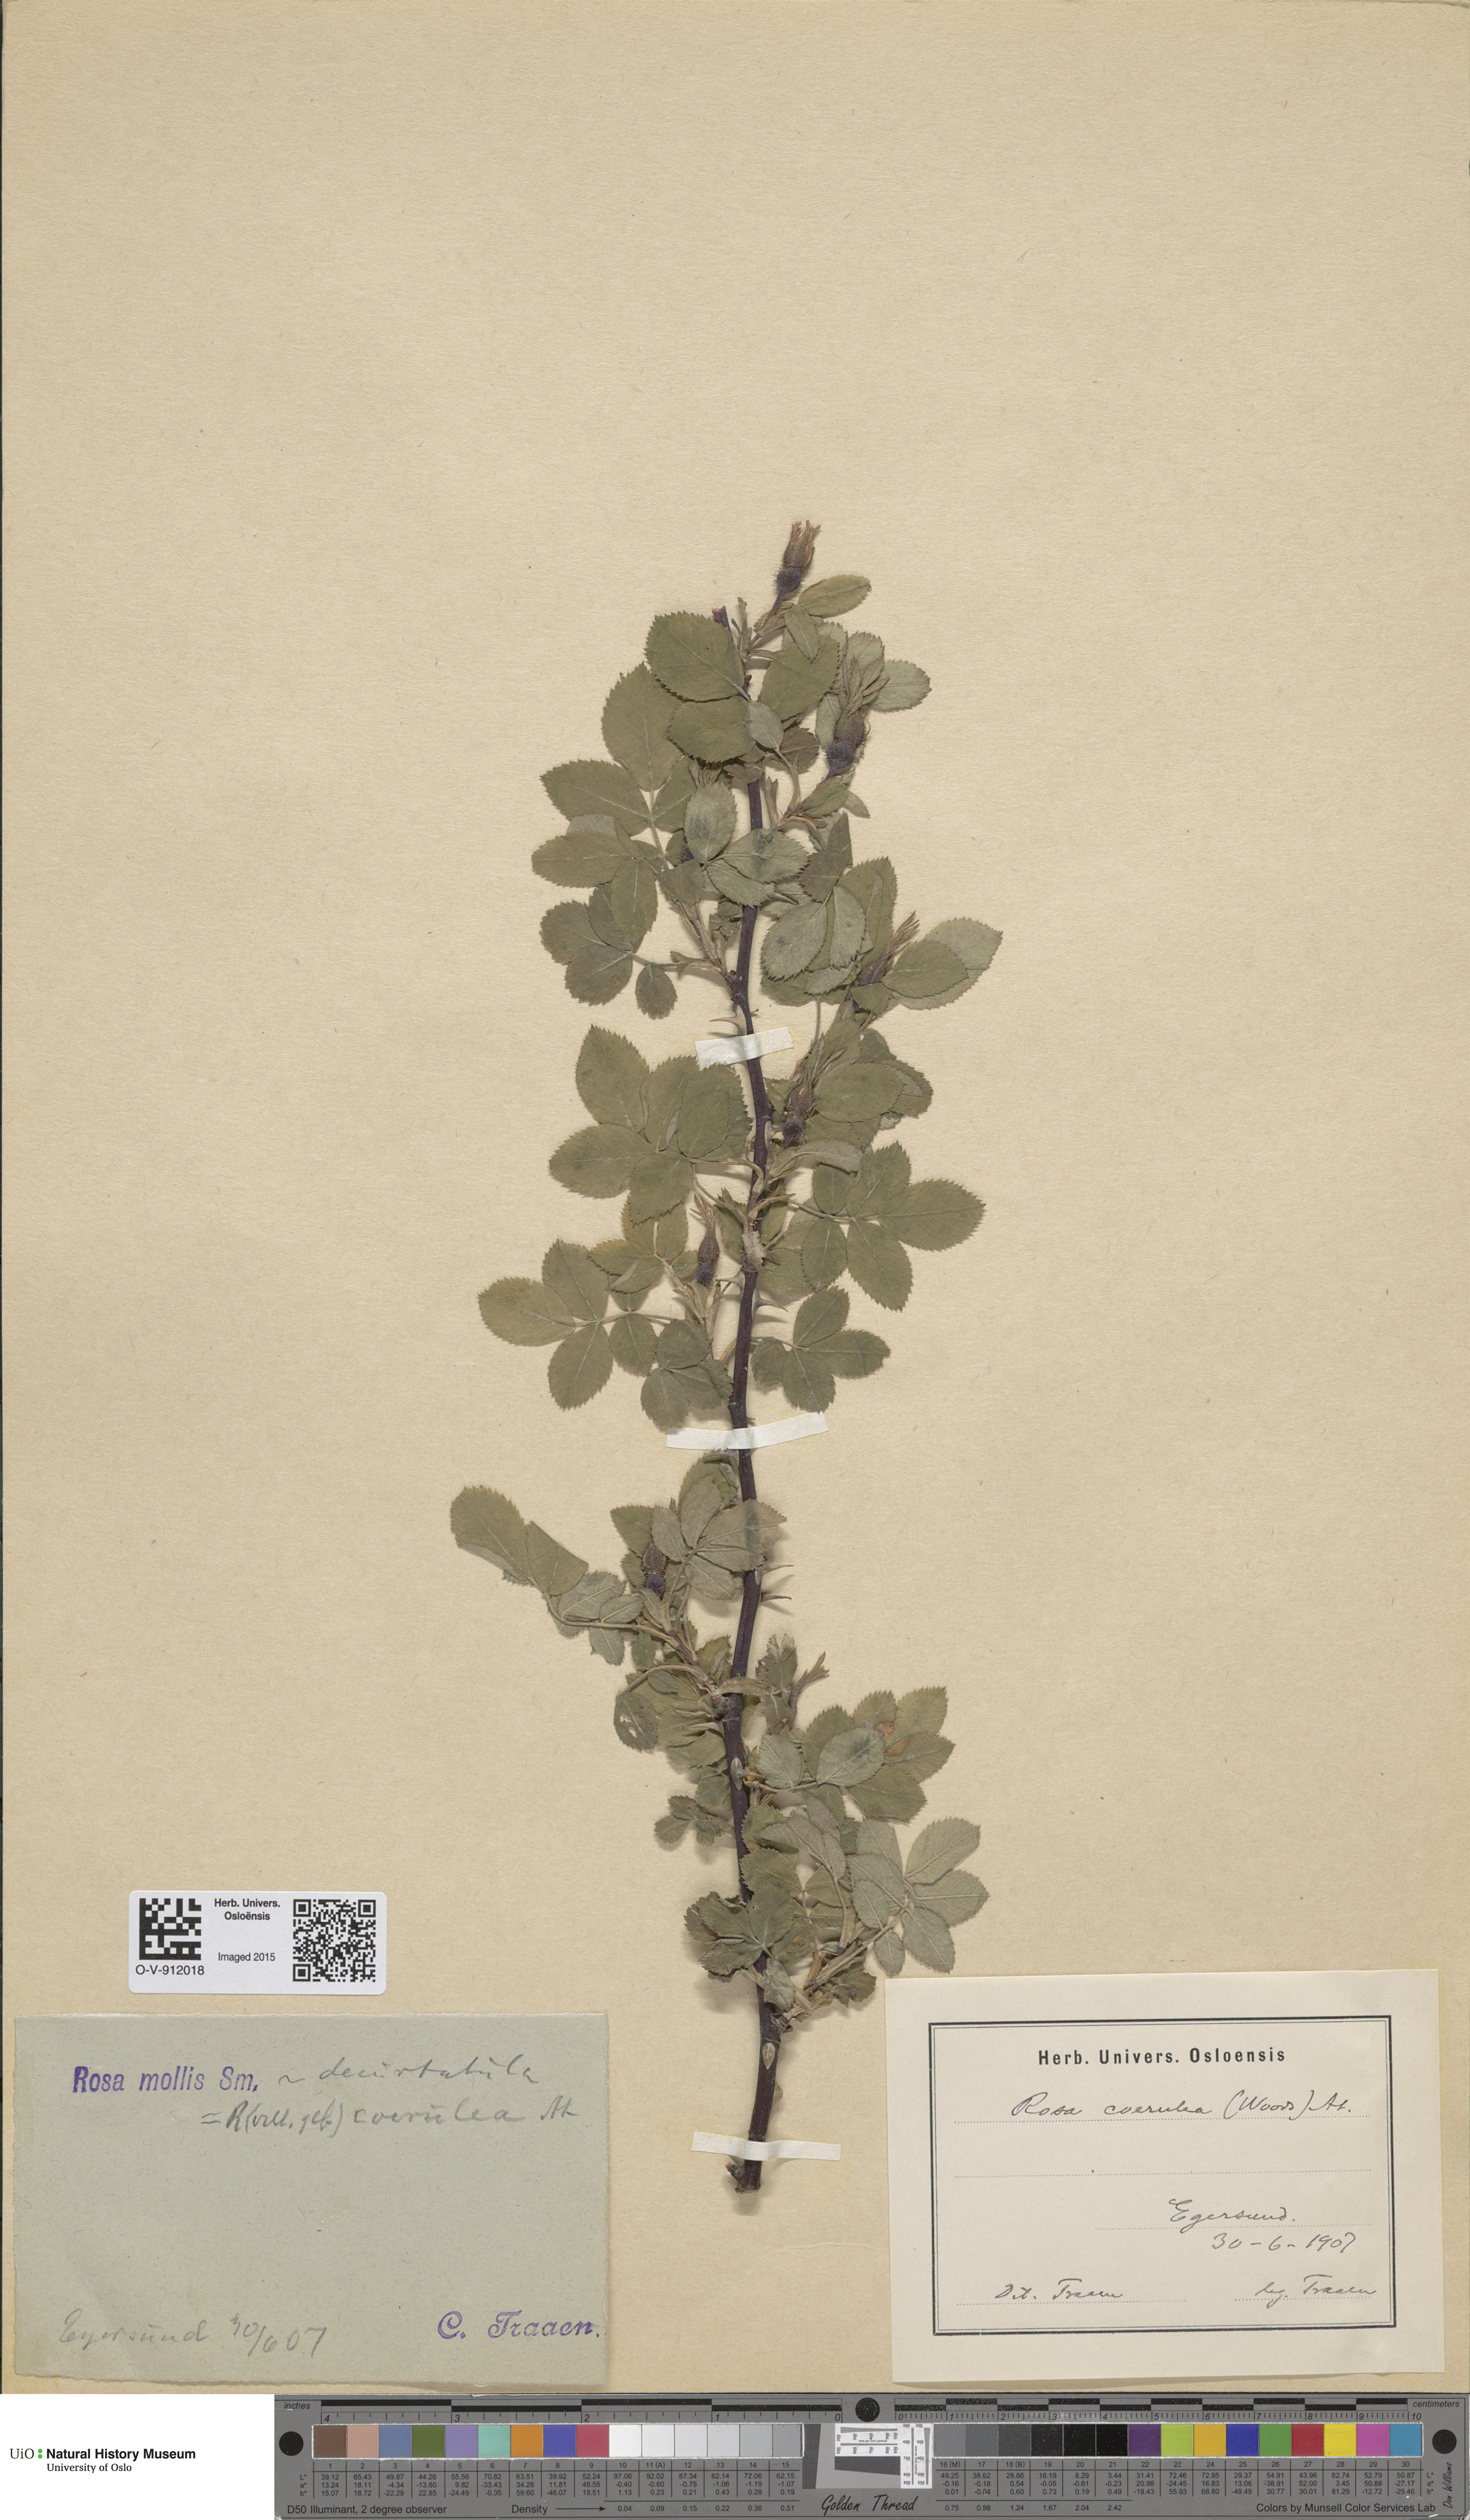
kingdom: Plantae
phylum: Tracheophyta
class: Magnoliopsida
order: Rosales
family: Rosaceae
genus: Rosa
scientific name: Rosa mollis
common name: Rose
